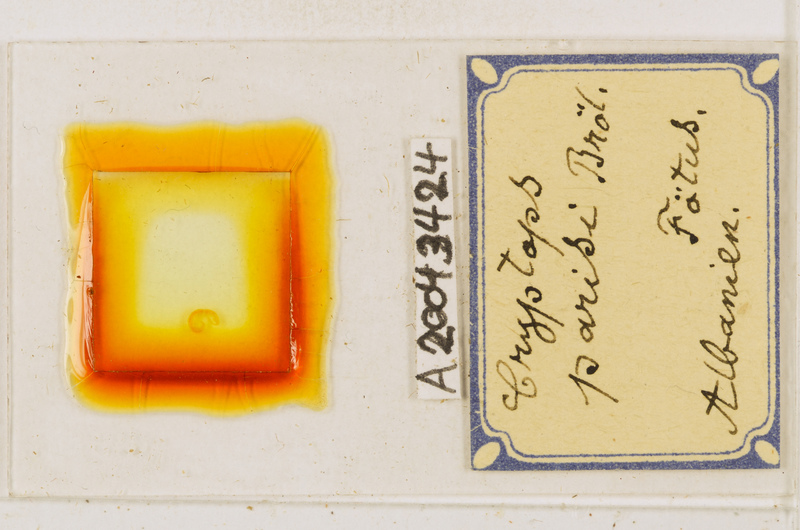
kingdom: Animalia
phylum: Arthropoda
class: Chilopoda
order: Scolopendromorpha
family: Cryptopidae
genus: Cryptops
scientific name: Cryptops parisi
